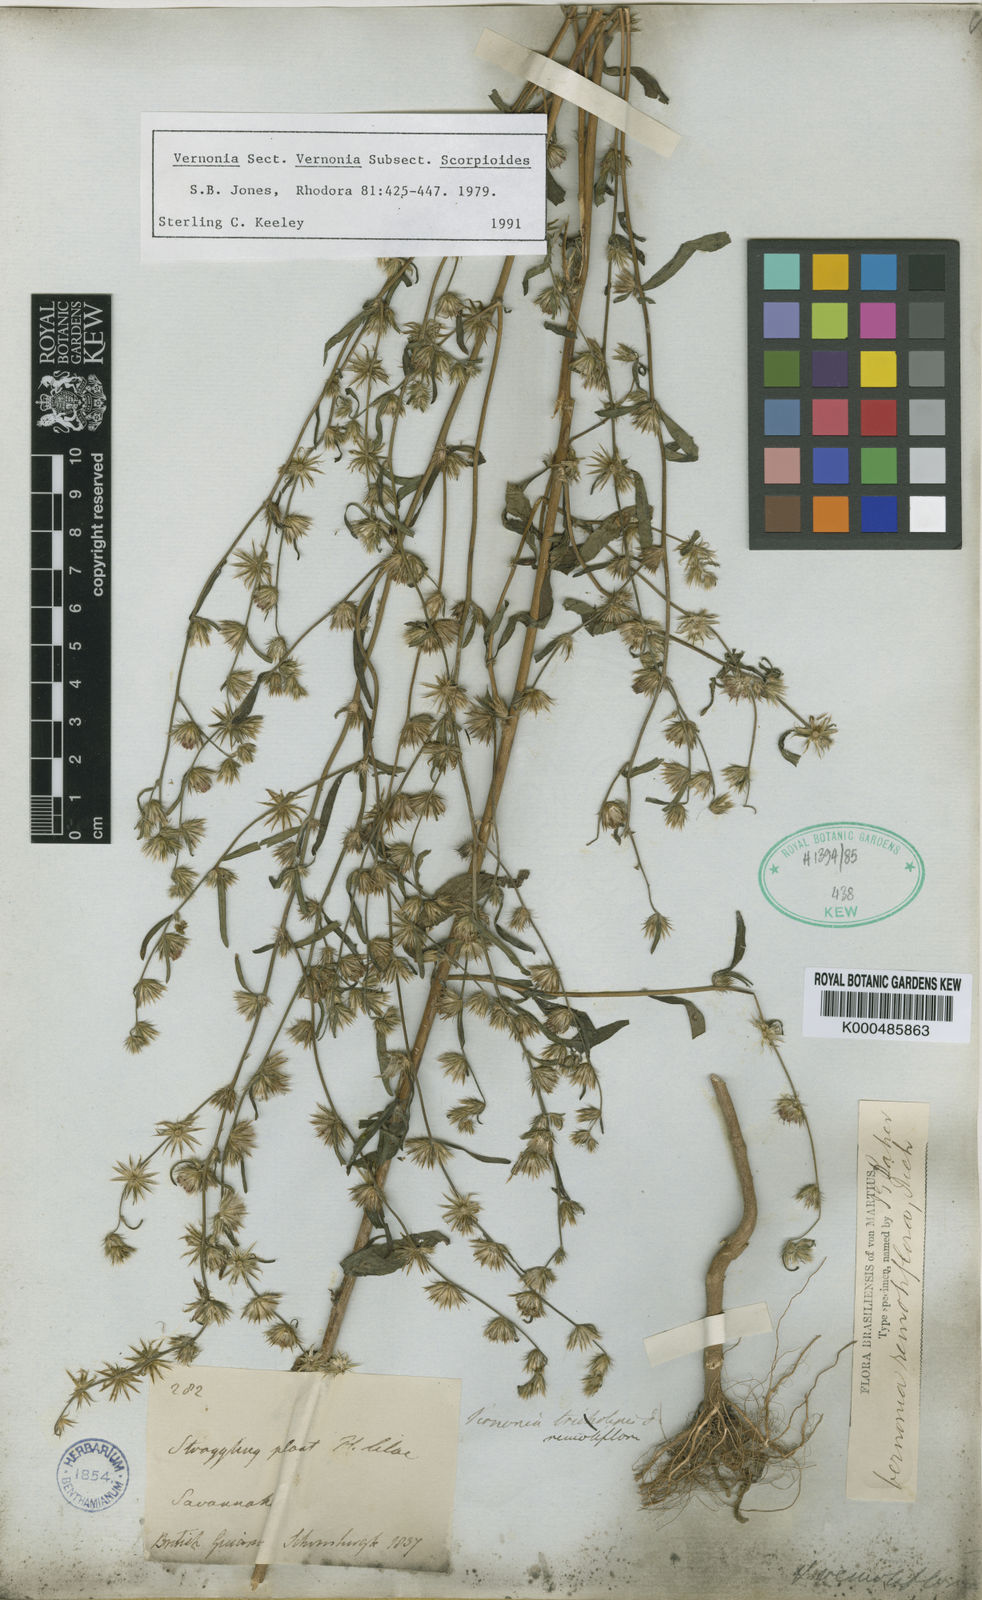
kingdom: Plantae
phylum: Tracheophyta
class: Magnoliopsida
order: Asterales
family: Asteraceae
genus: Lepidaploa
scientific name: Lepidaploa remotiflora
